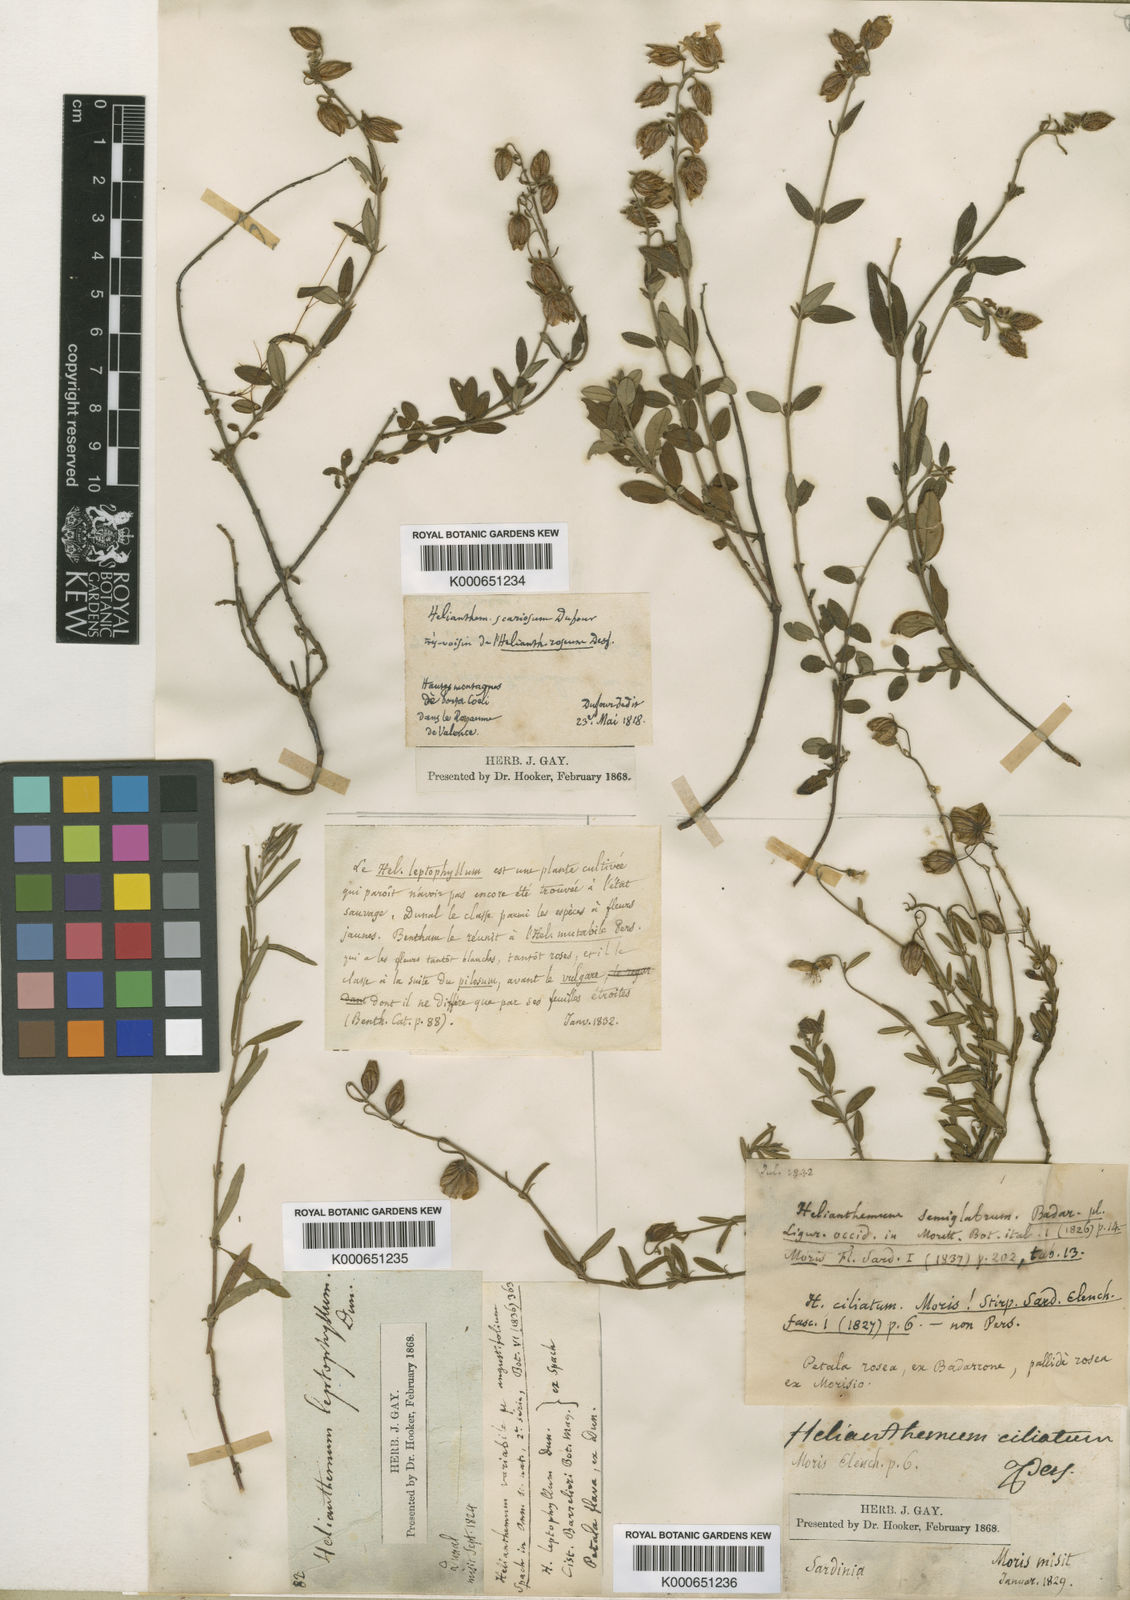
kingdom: Plantae
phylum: Tracheophyta
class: Magnoliopsida
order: Malvales
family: Cistaceae
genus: Helianthemum
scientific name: Helianthemum
